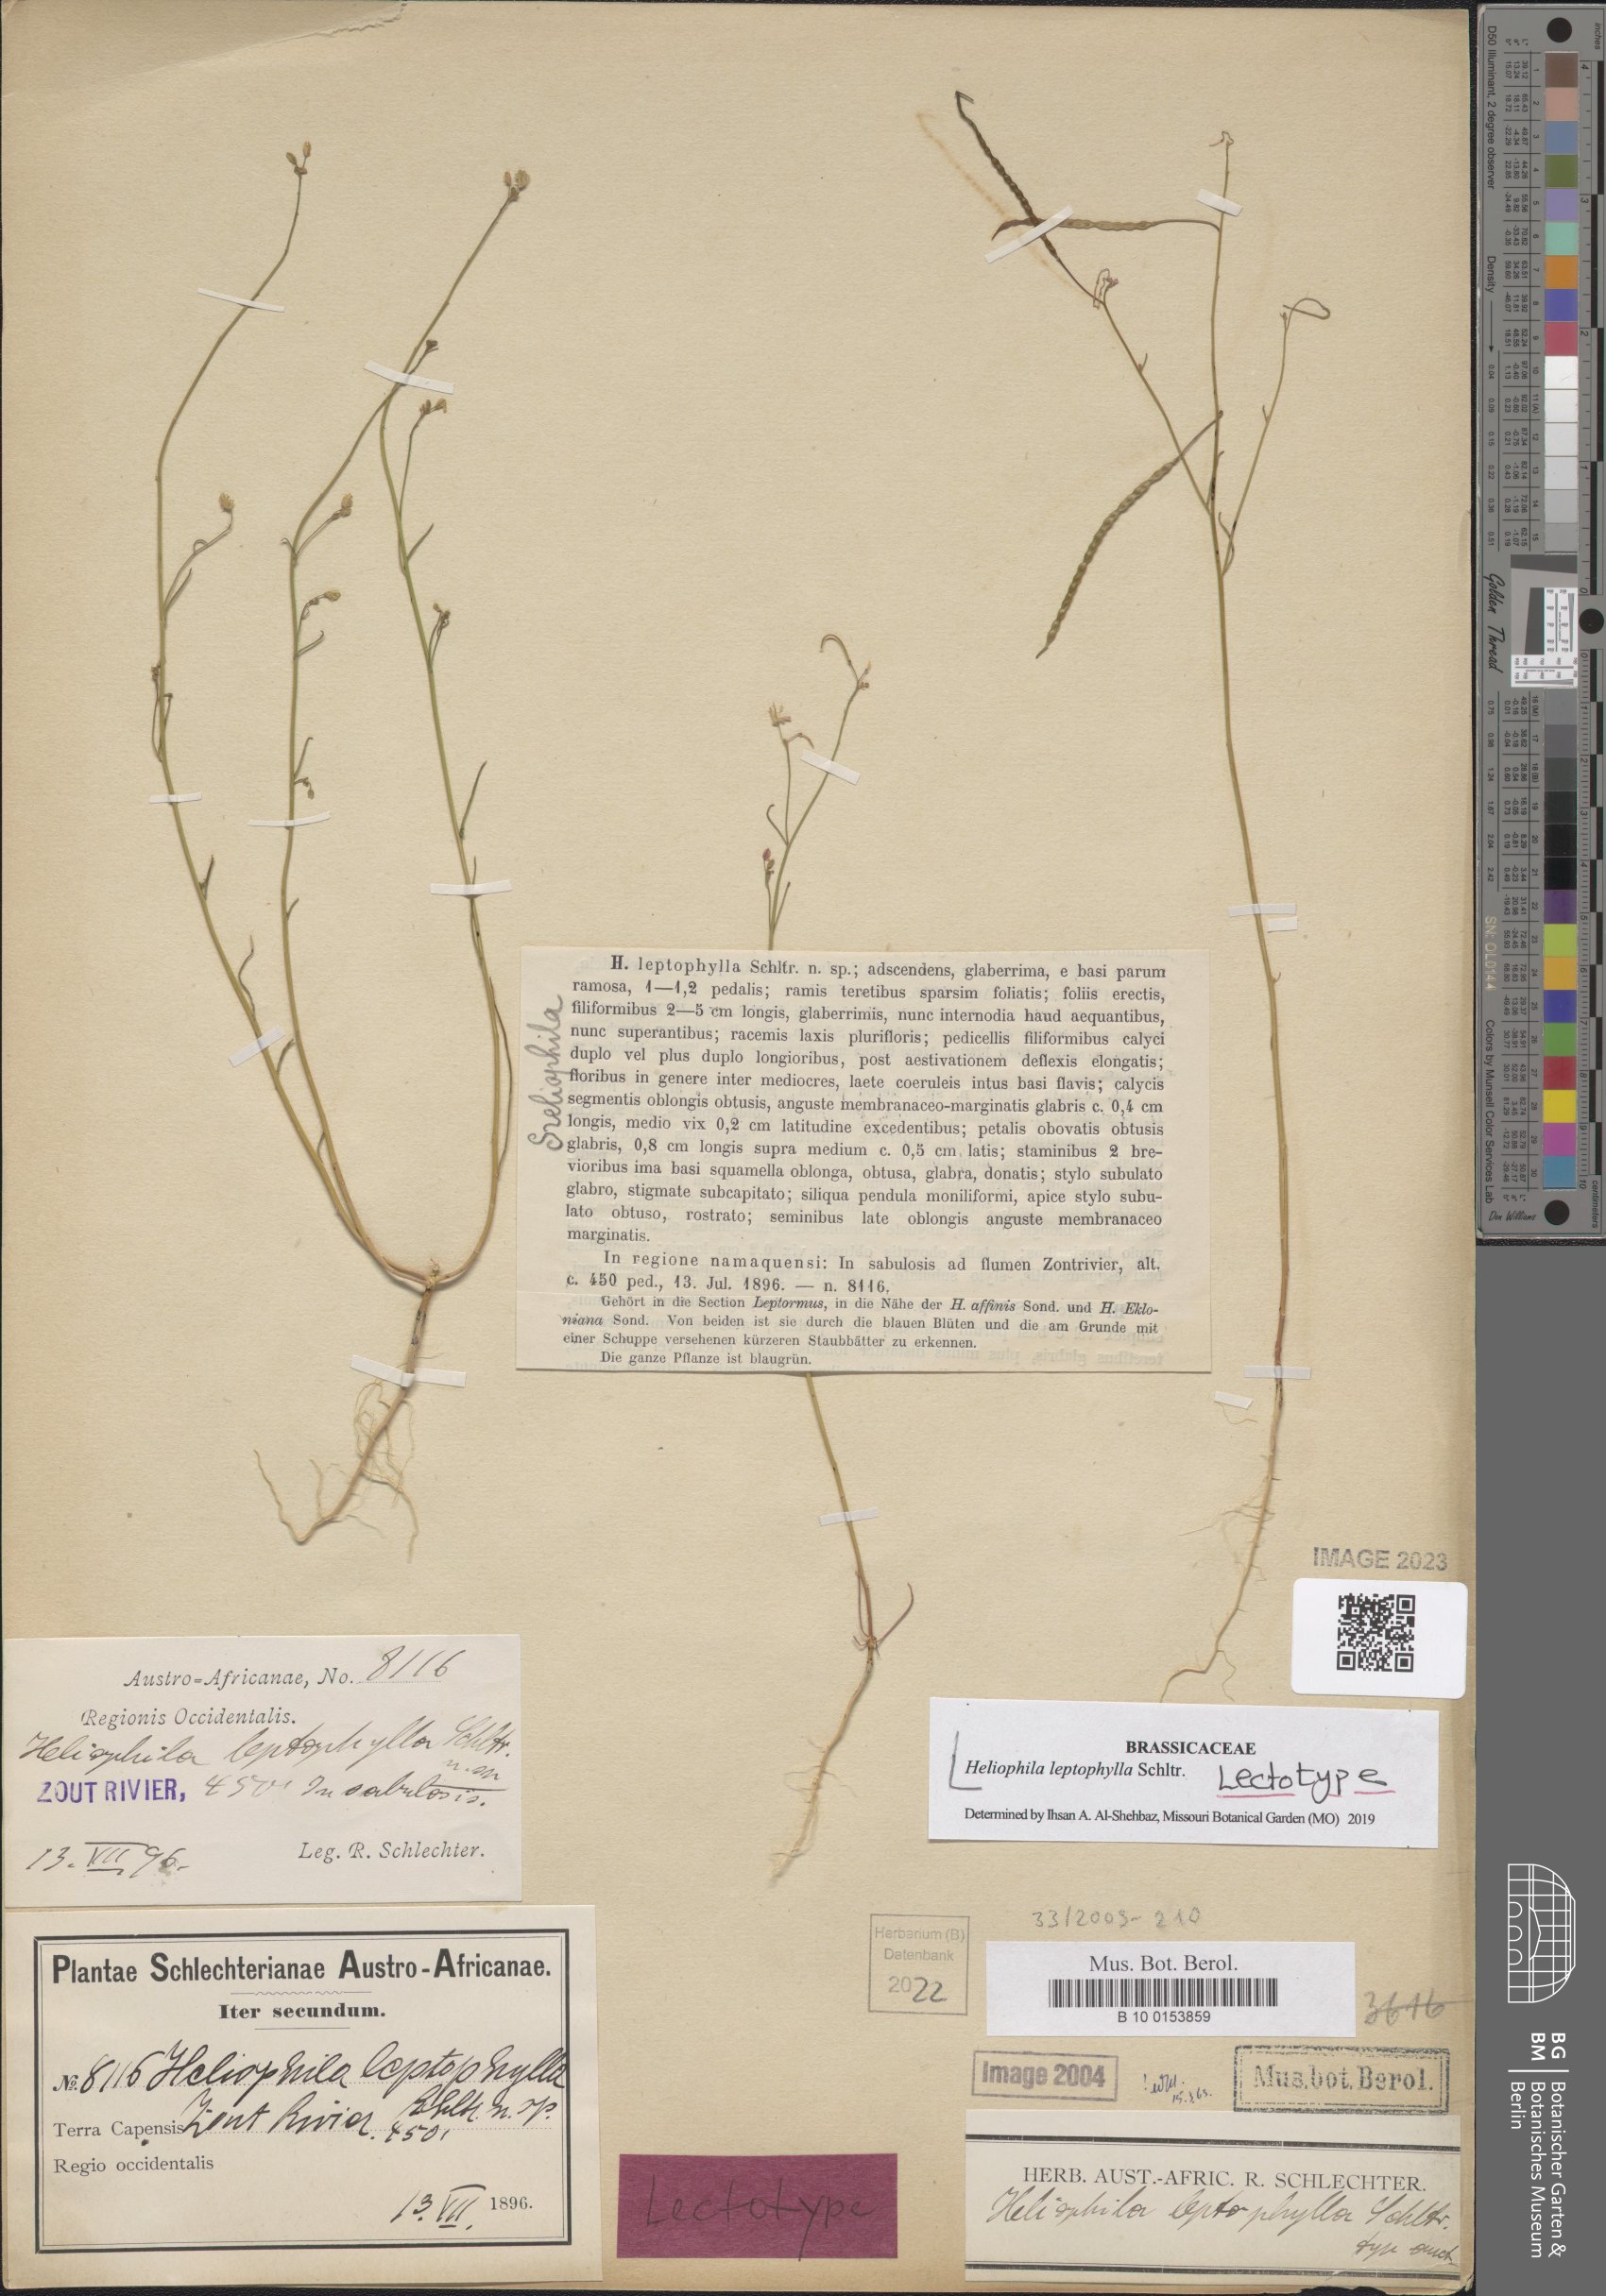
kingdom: Plantae
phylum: Tracheophyta
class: Magnoliopsida
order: Brassicales
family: Brassicaceae
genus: Heliophila
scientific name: Heliophila leptophylla
